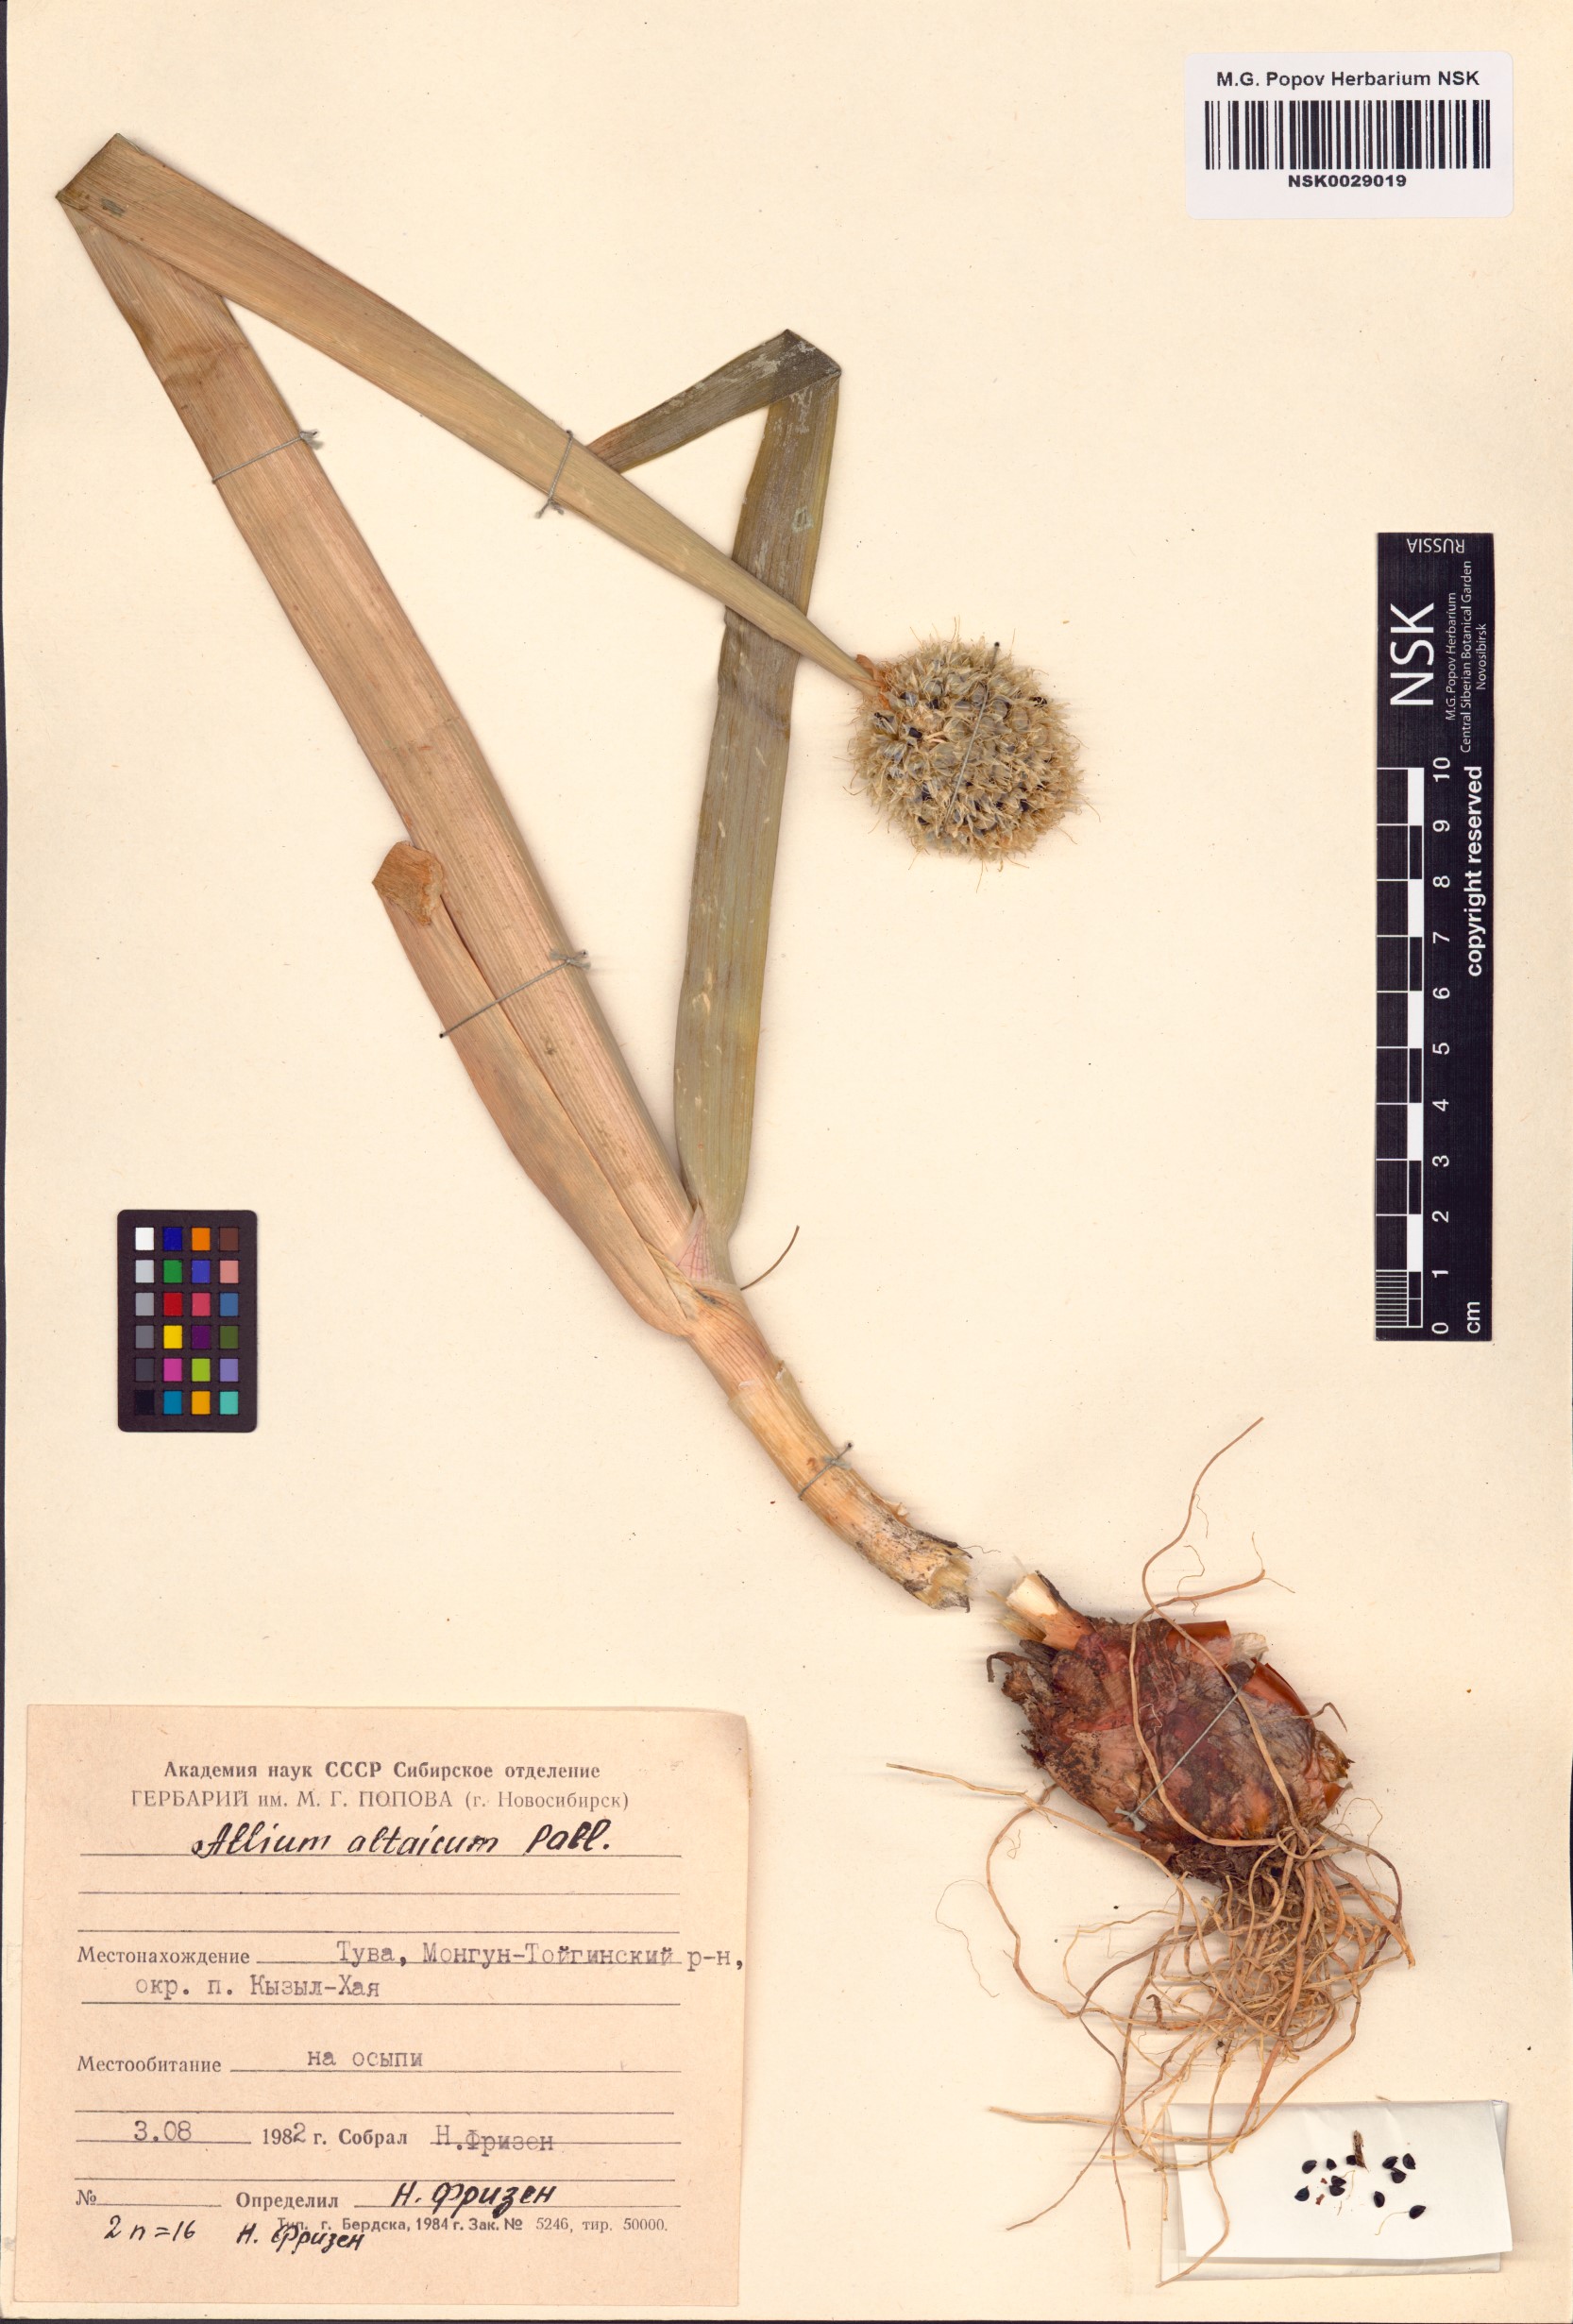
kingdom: Plantae
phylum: Tracheophyta
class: Liliopsida
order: Asparagales
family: Amaryllidaceae
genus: Allium
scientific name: Allium altaicum
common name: Altai onion
